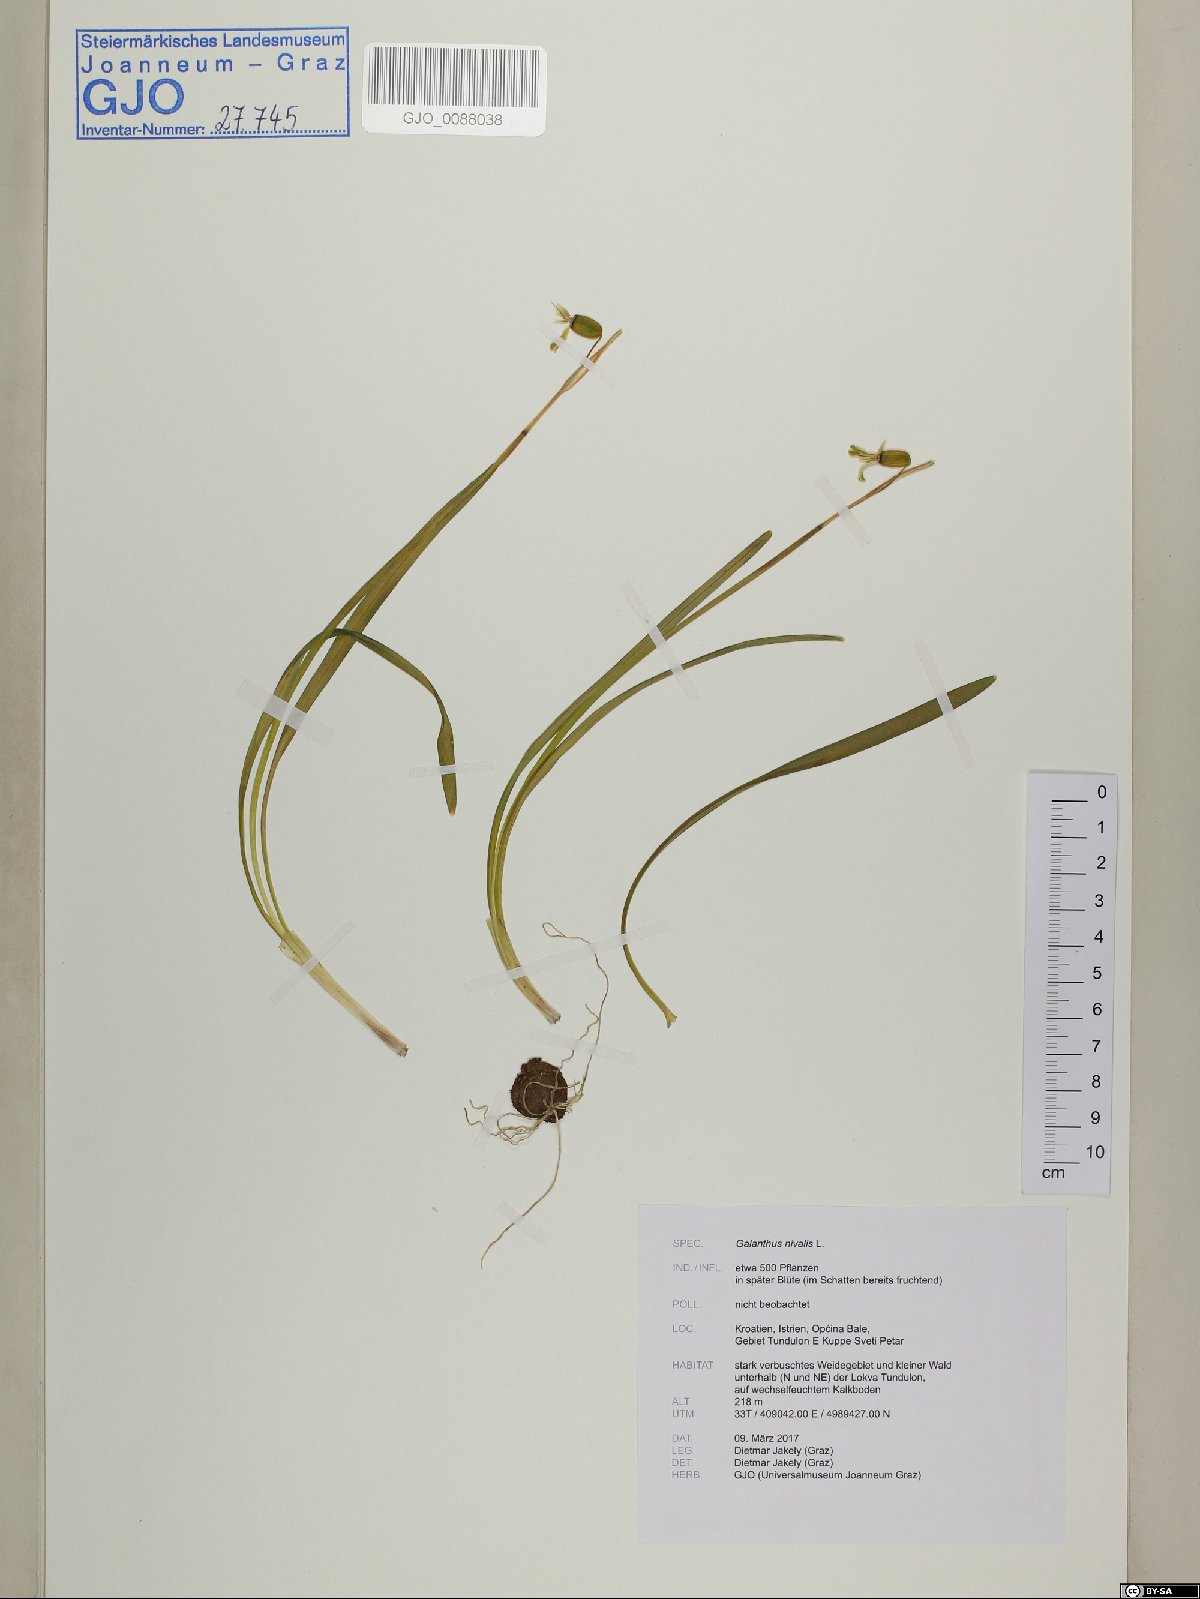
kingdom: Plantae
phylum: Tracheophyta
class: Liliopsida
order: Asparagales
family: Amaryllidaceae
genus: Galanthus
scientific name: Galanthus nivalis
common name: Snowdrop
